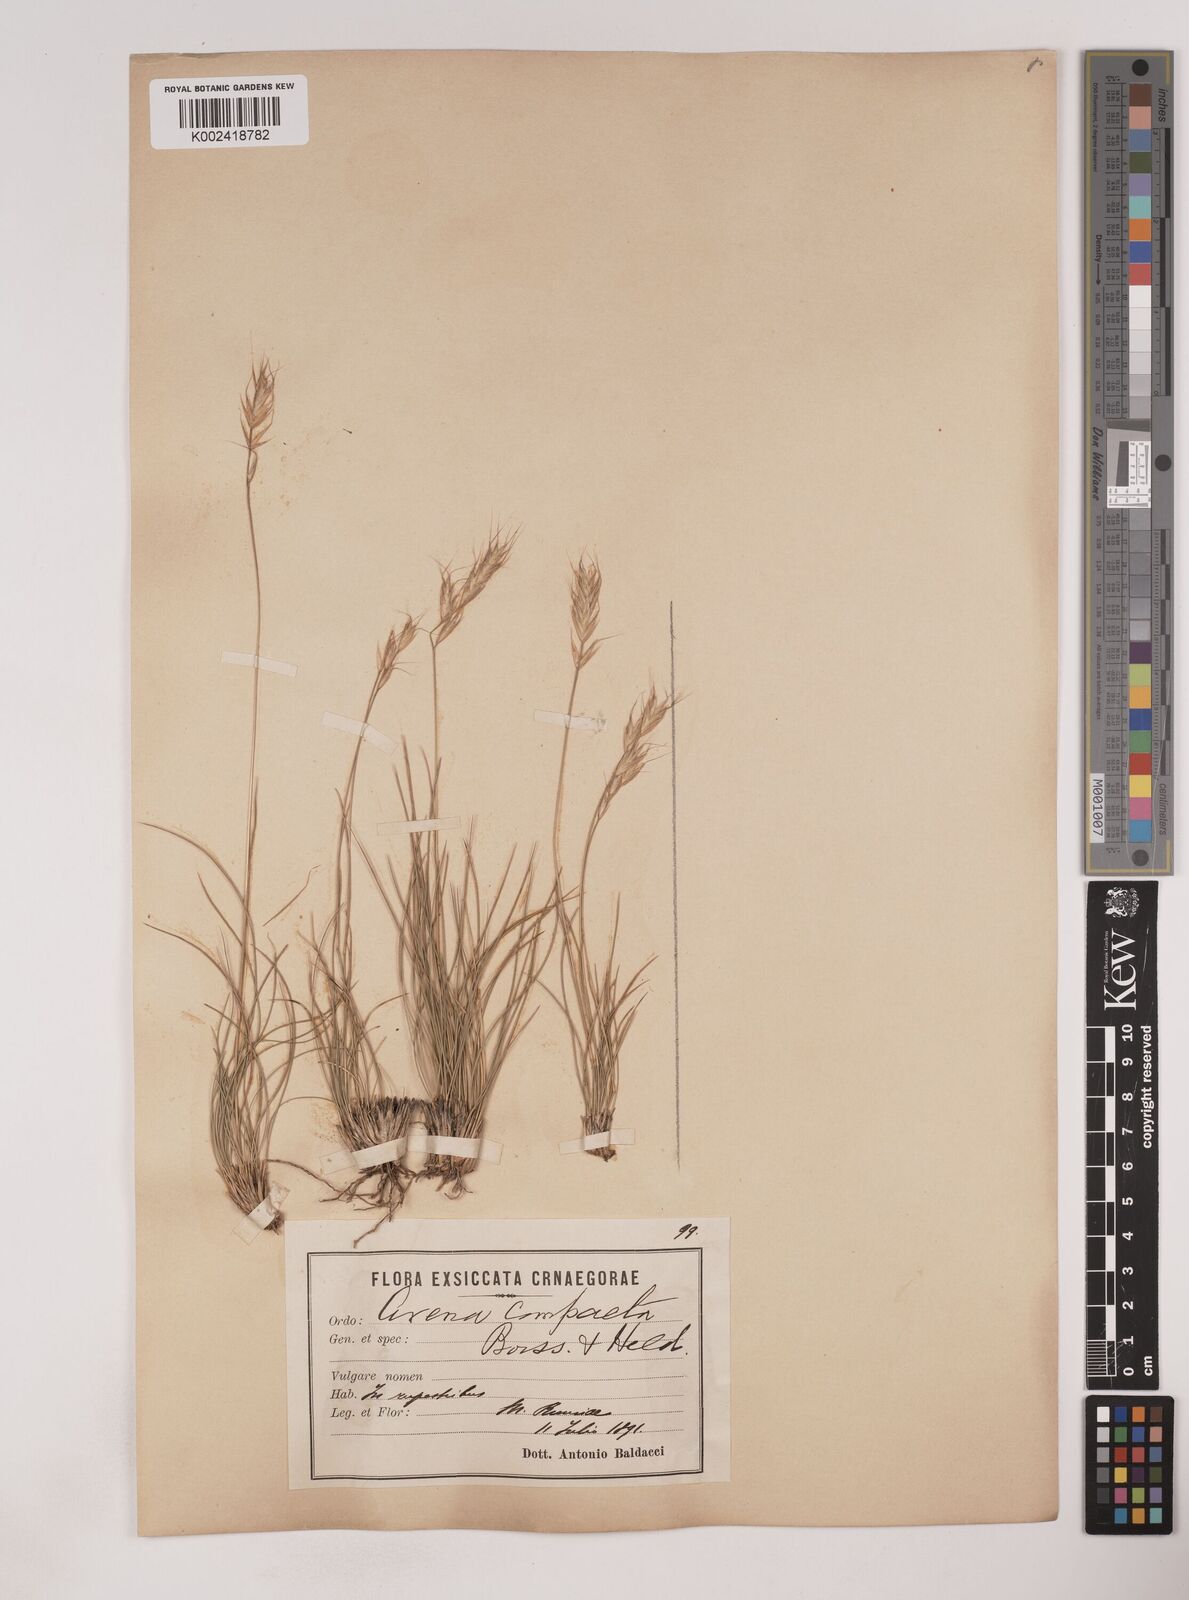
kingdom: Plantae
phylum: Tracheophyta
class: Liliopsida
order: Poales
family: Poaceae
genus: Danthoniastrum
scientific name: Danthoniastrum compactum
